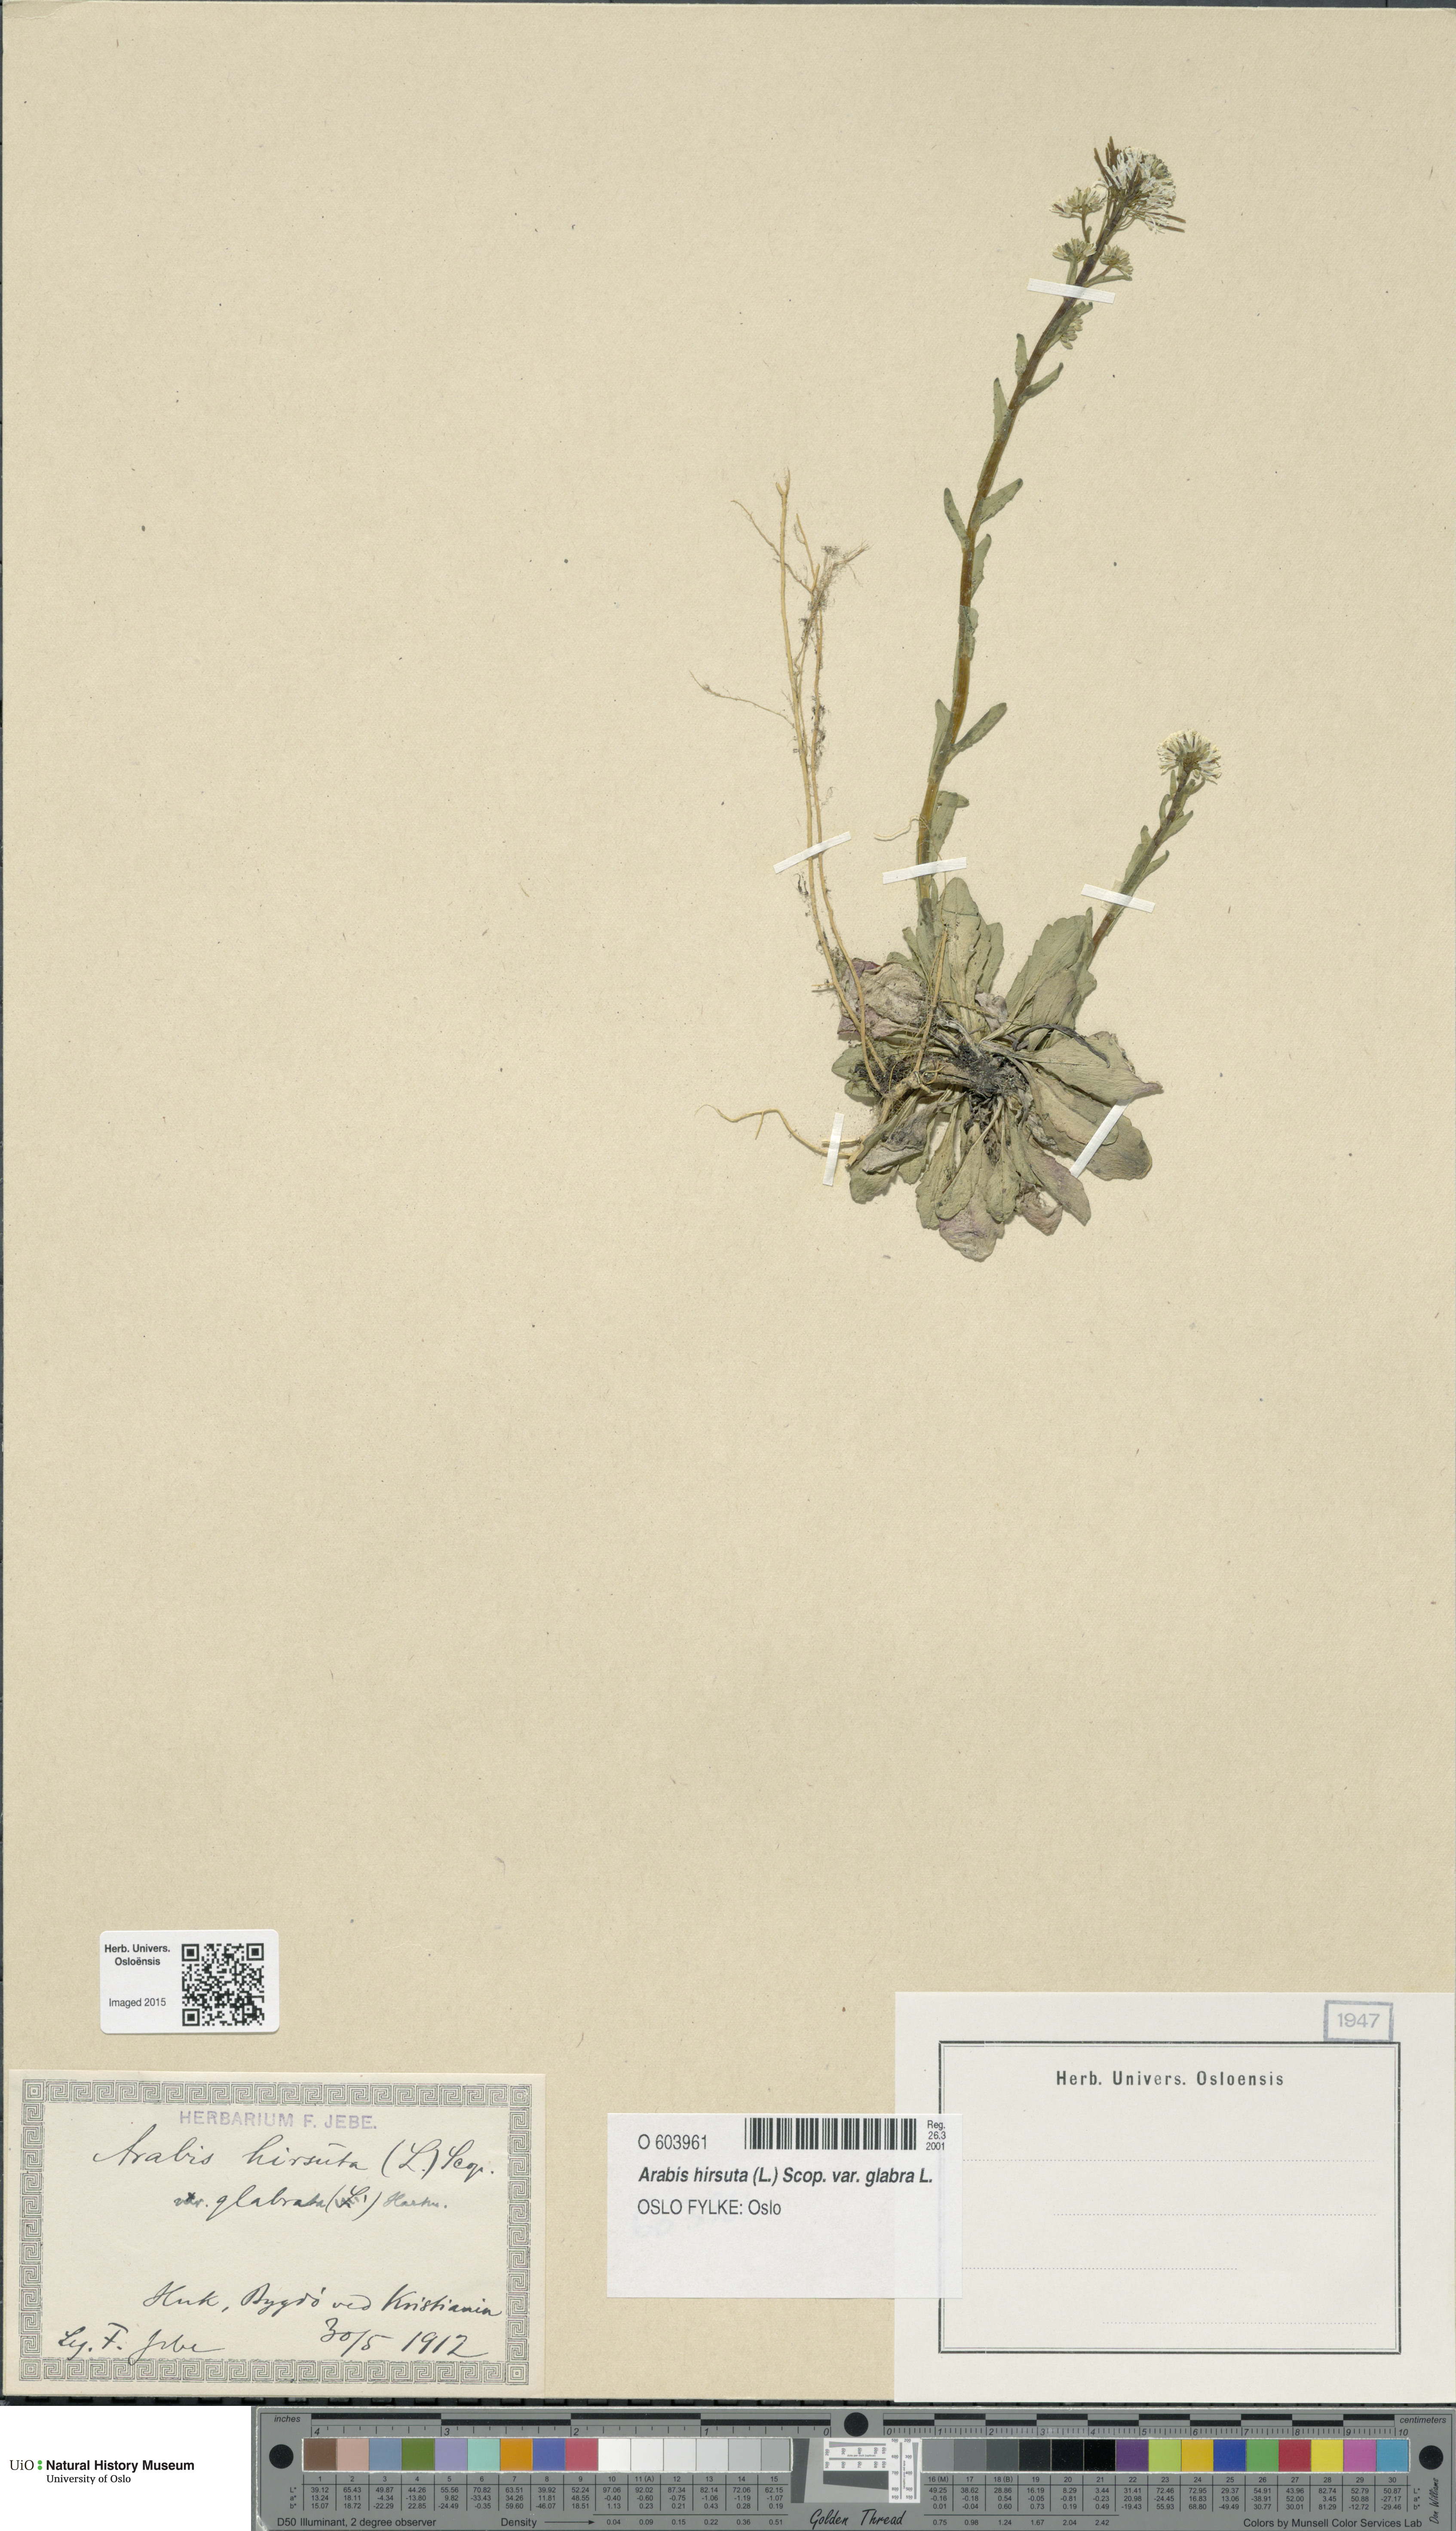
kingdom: Plantae
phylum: Tracheophyta
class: Magnoliopsida
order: Brassicales
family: Brassicaceae
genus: Arabis
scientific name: Arabis hirsuta
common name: Hairy rock-cress
